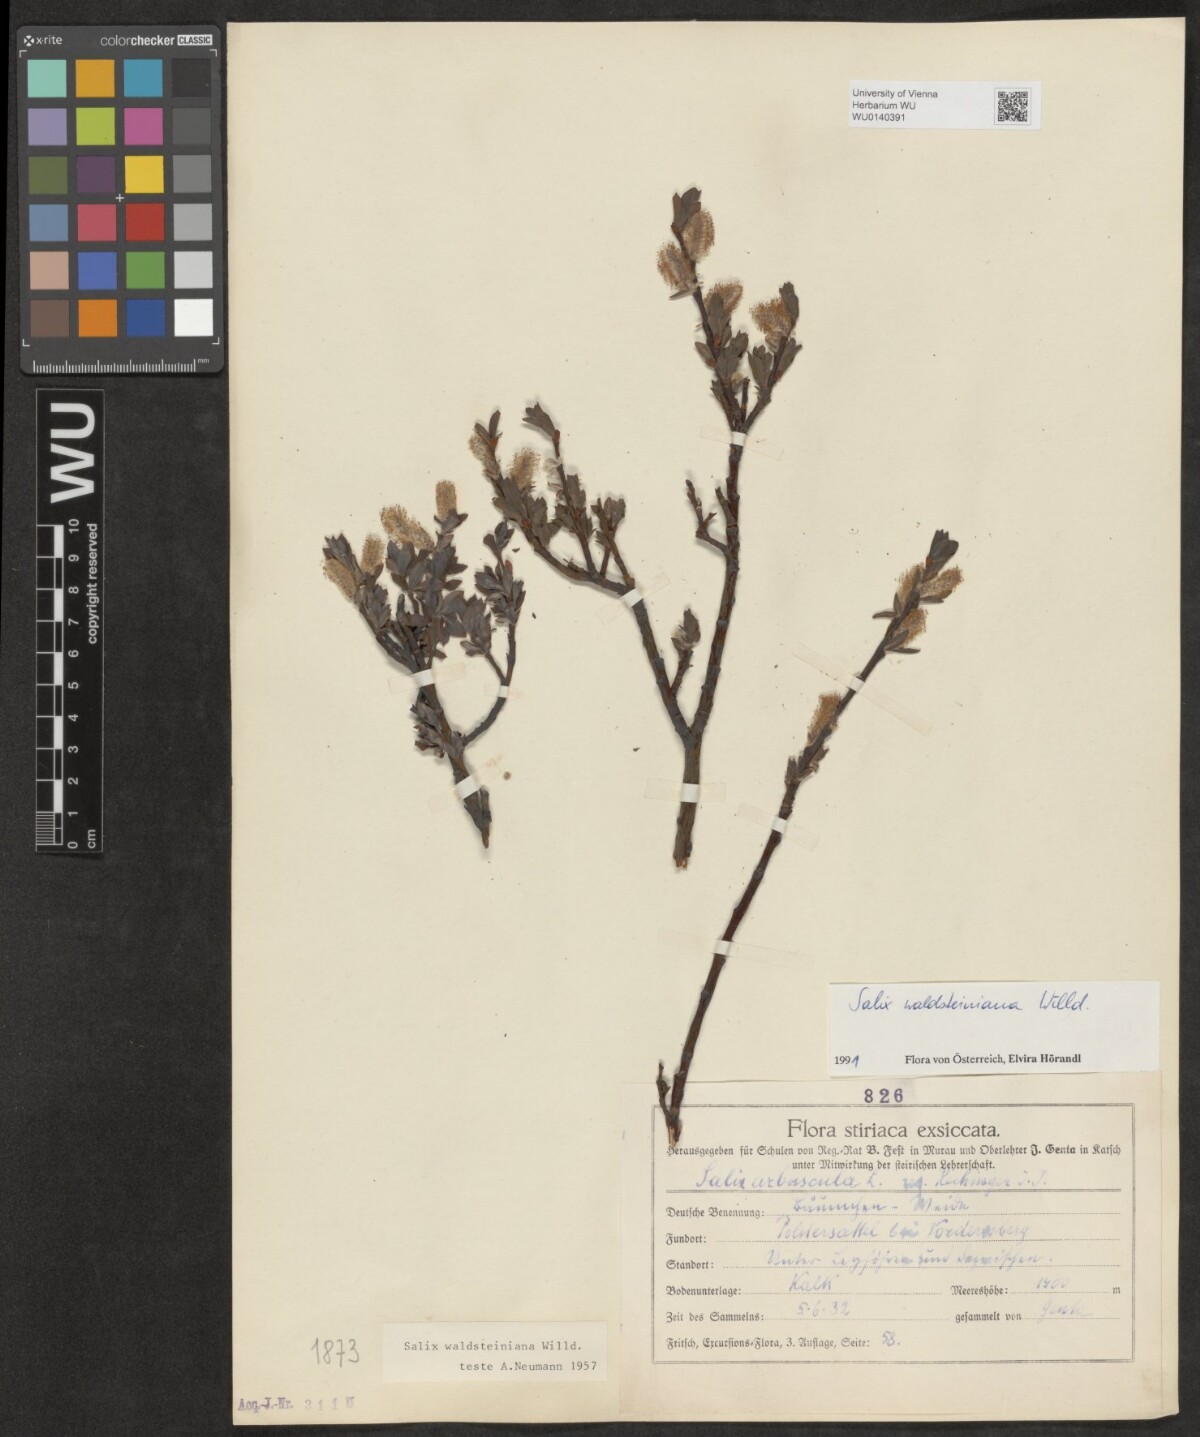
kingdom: Plantae
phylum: Tracheophyta
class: Magnoliopsida
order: Malpighiales
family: Salicaceae
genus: Salix
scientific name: Salix waldsteiniana
